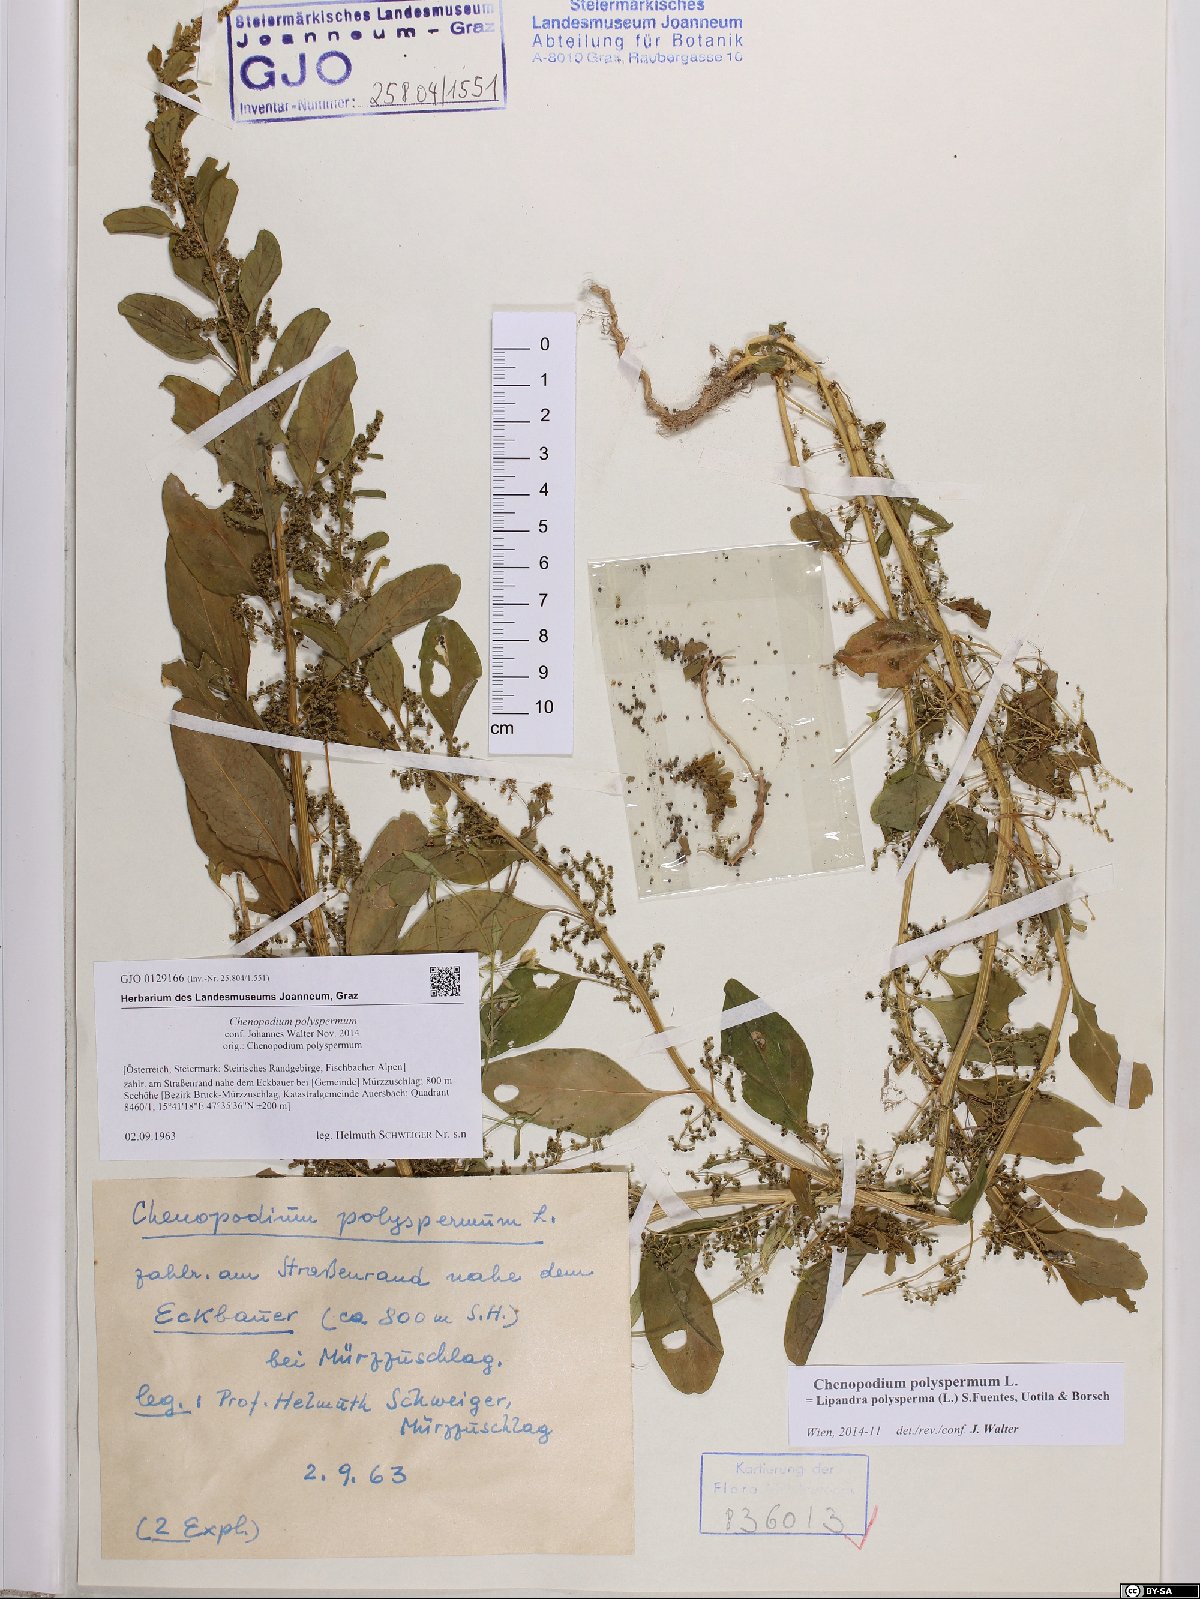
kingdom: Plantae
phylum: Tracheophyta
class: Magnoliopsida
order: Caryophyllales
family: Amaranthaceae
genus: Lipandra
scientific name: Lipandra polysperma
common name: Many-seed goosefoot
